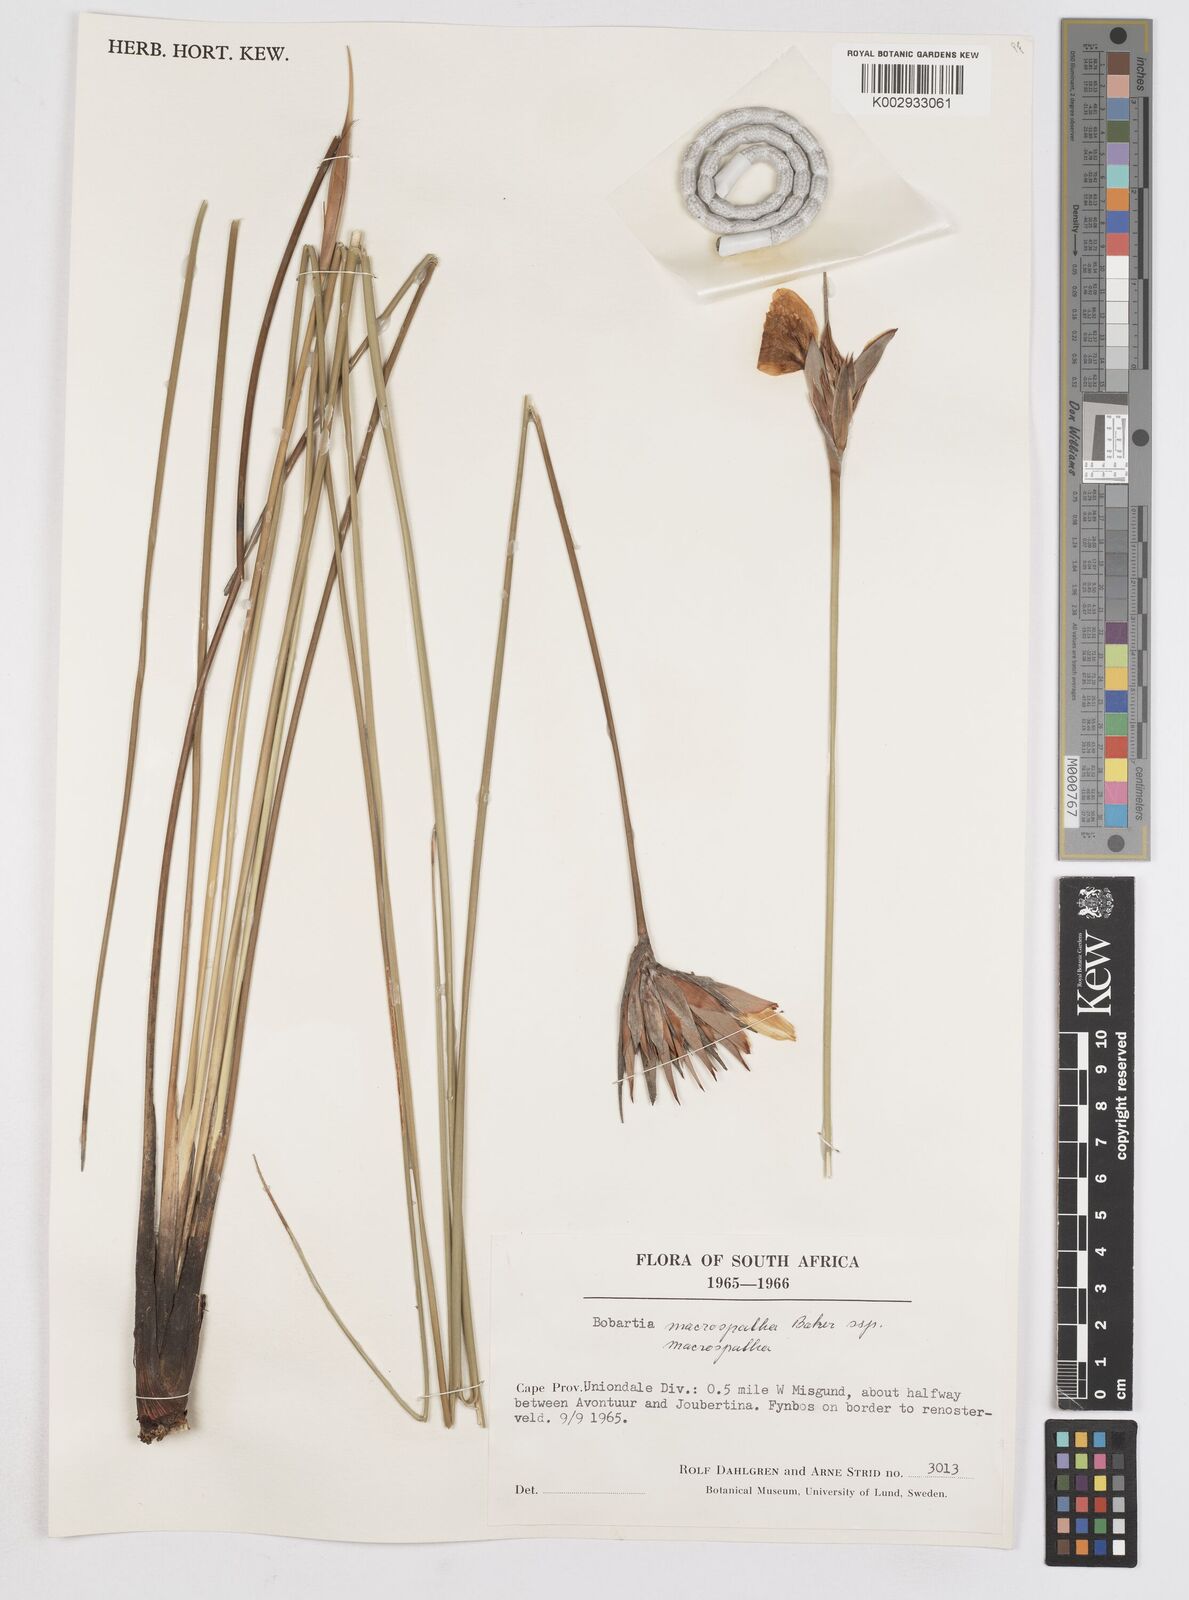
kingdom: Plantae
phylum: Tracheophyta
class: Liliopsida
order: Asparagales
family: Iridaceae
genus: Bobartia
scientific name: Bobartia macrospatha
